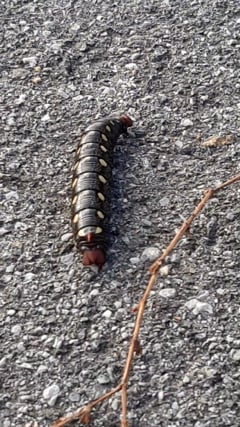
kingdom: Animalia
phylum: Arthropoda
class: Insecta
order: Lepidoptera
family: Sphingidae
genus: Hyles
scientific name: Hyles gallii
